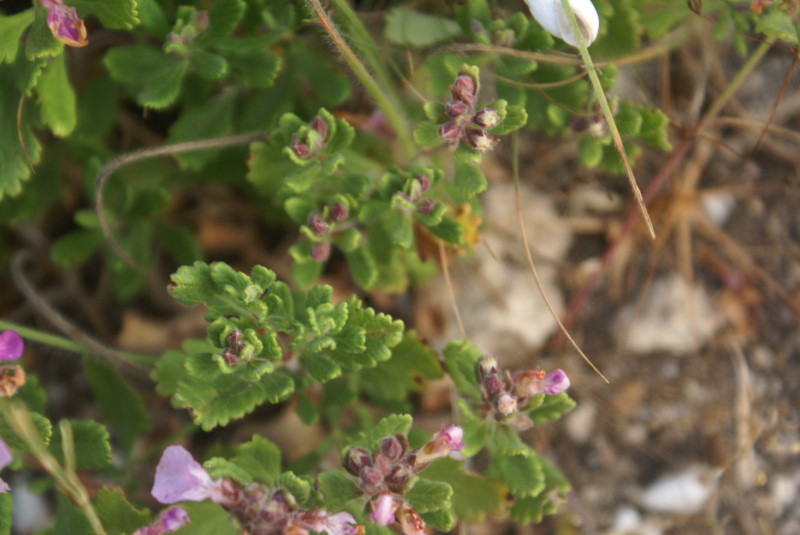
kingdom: Plantae
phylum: Tracheophyta
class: Magnoliopsida
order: Lamiales
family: Lamiaceae
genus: Thymus
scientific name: Thymus
